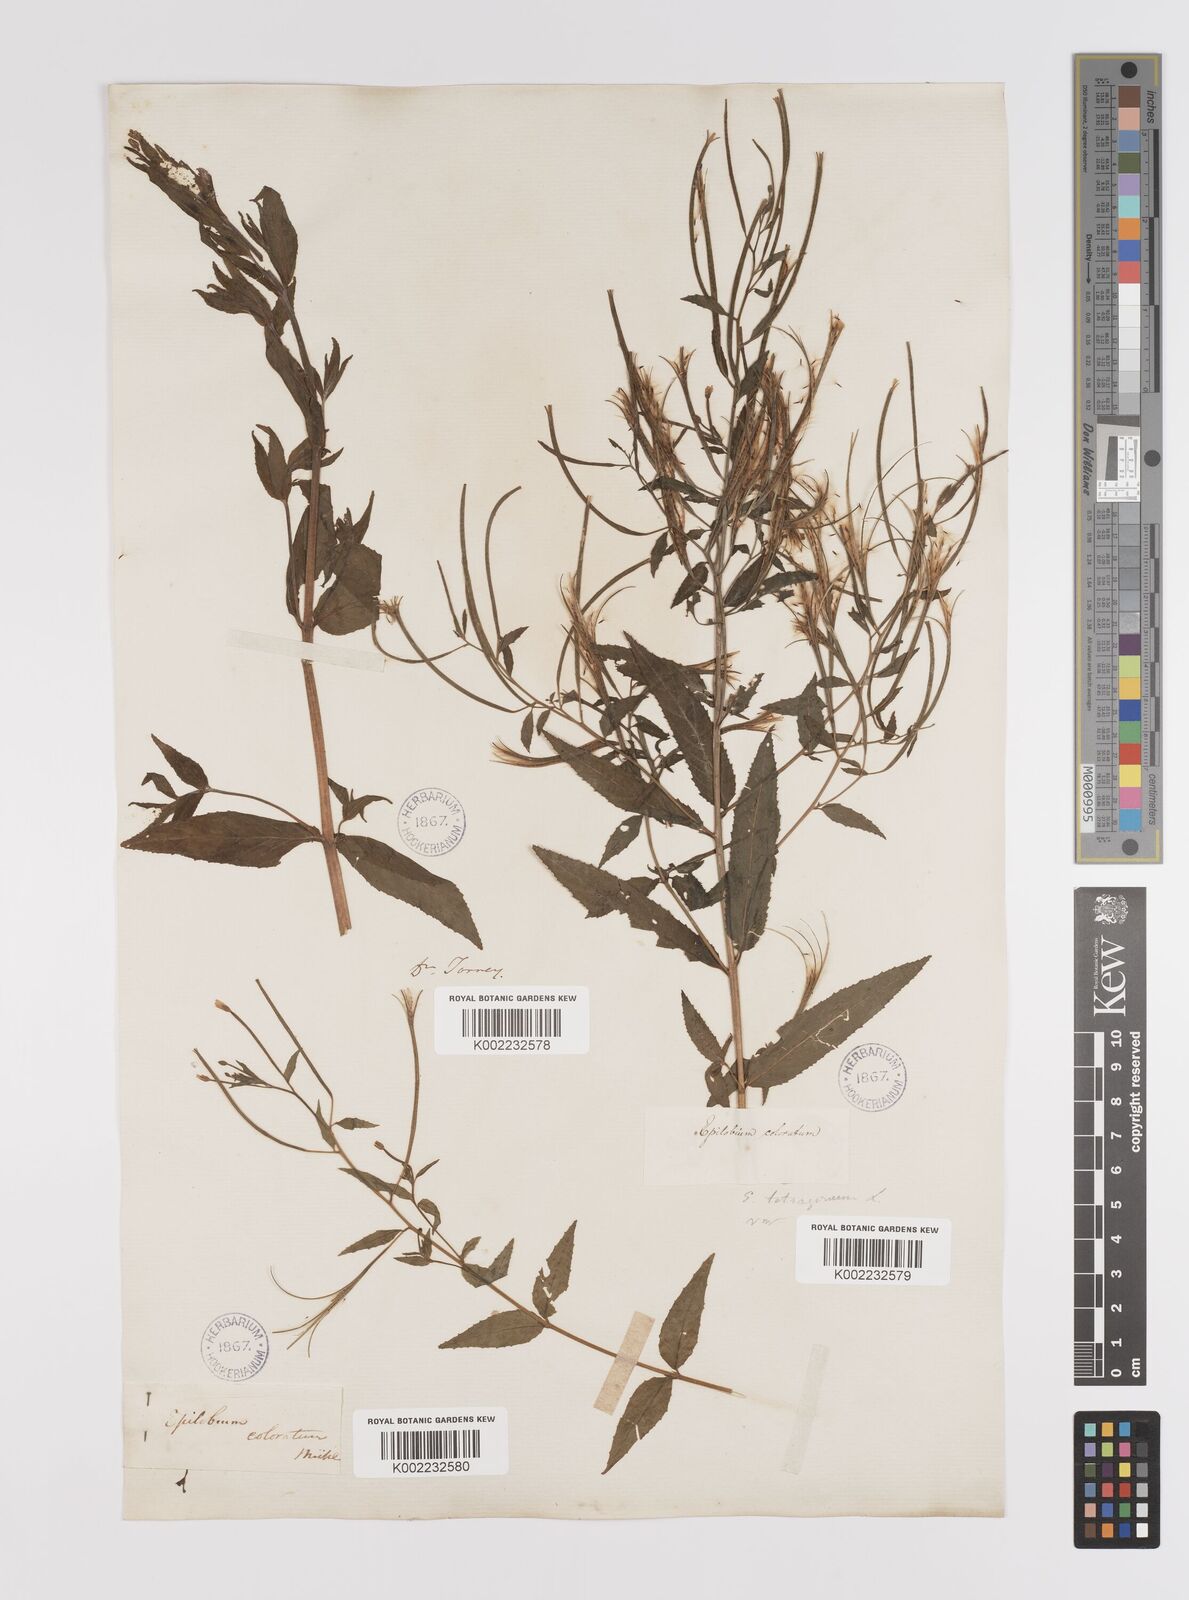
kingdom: Plantae
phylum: Tracheophyta
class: Magnoliopsida
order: Myrtales
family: Onagraceae
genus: Epilobium
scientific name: Epilobium coloratum
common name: Bronze willowherb
